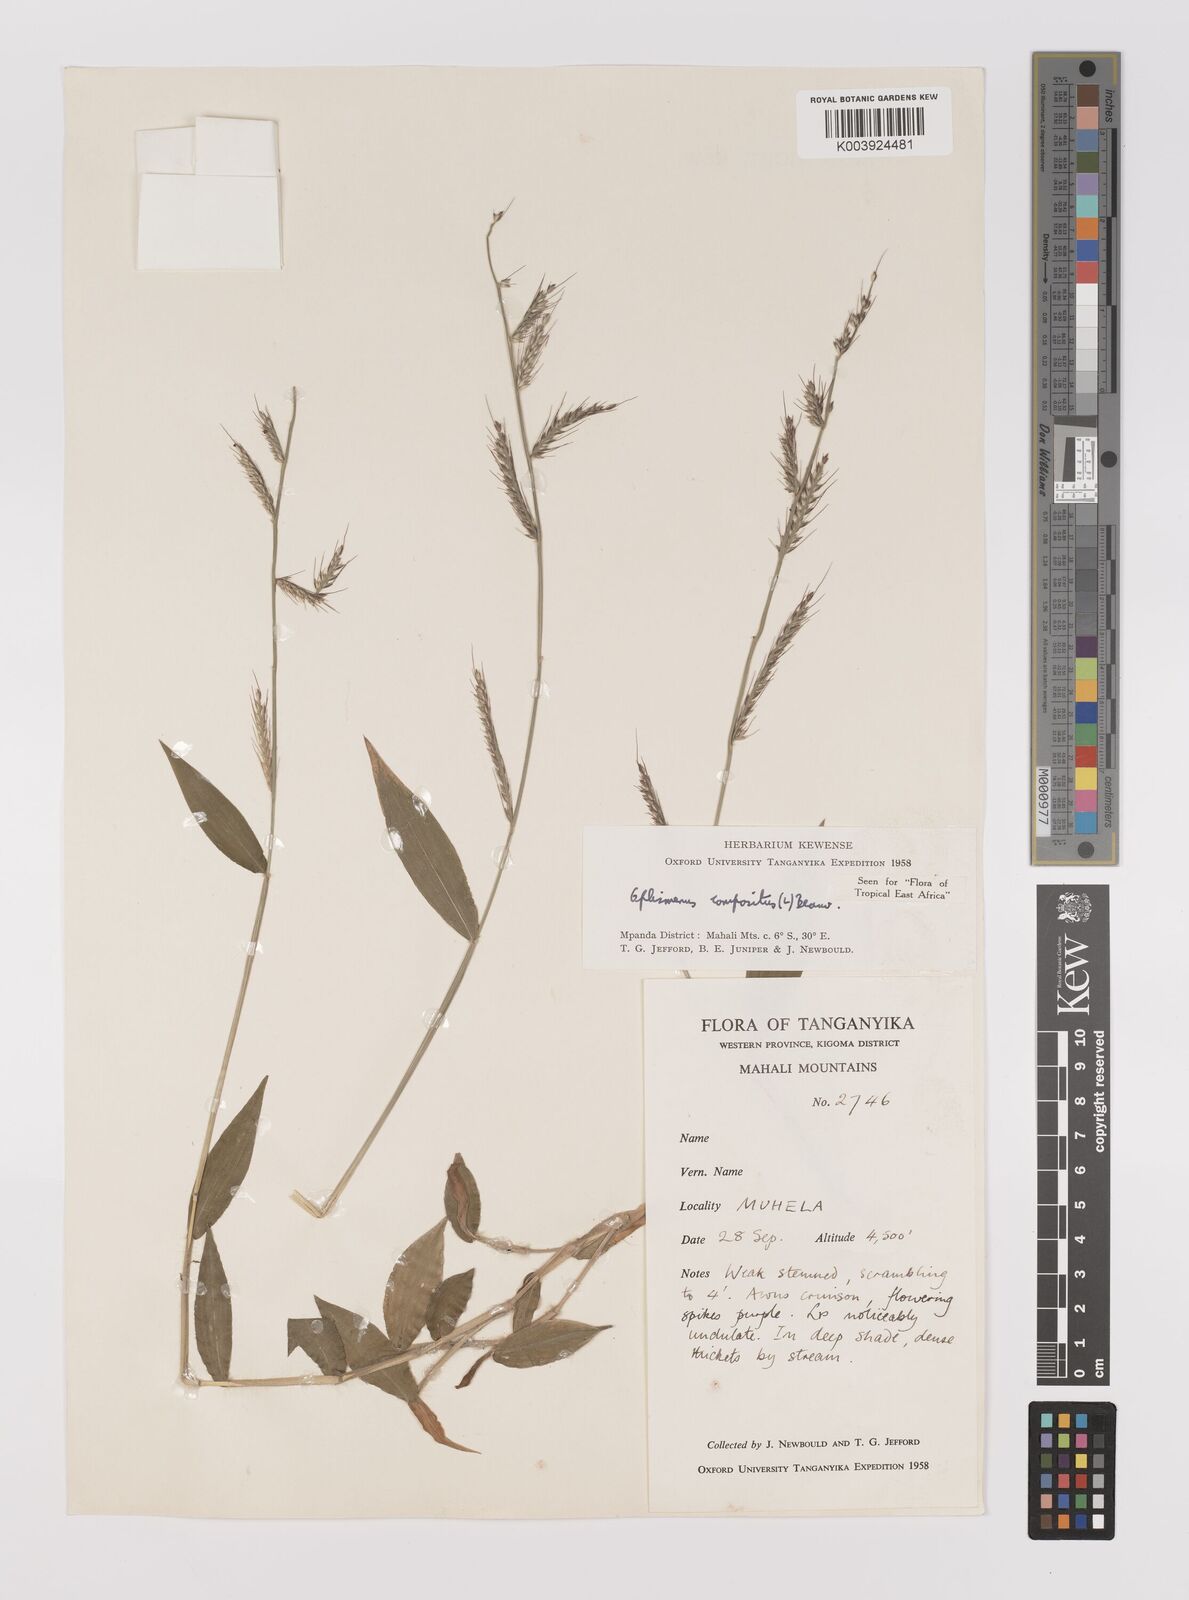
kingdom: Plantae
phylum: Tracheophyta
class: Liliopsida
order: Poales
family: Poaceae
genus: Oplismenus
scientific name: Oplismenus compositus
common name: Running mountain grass
